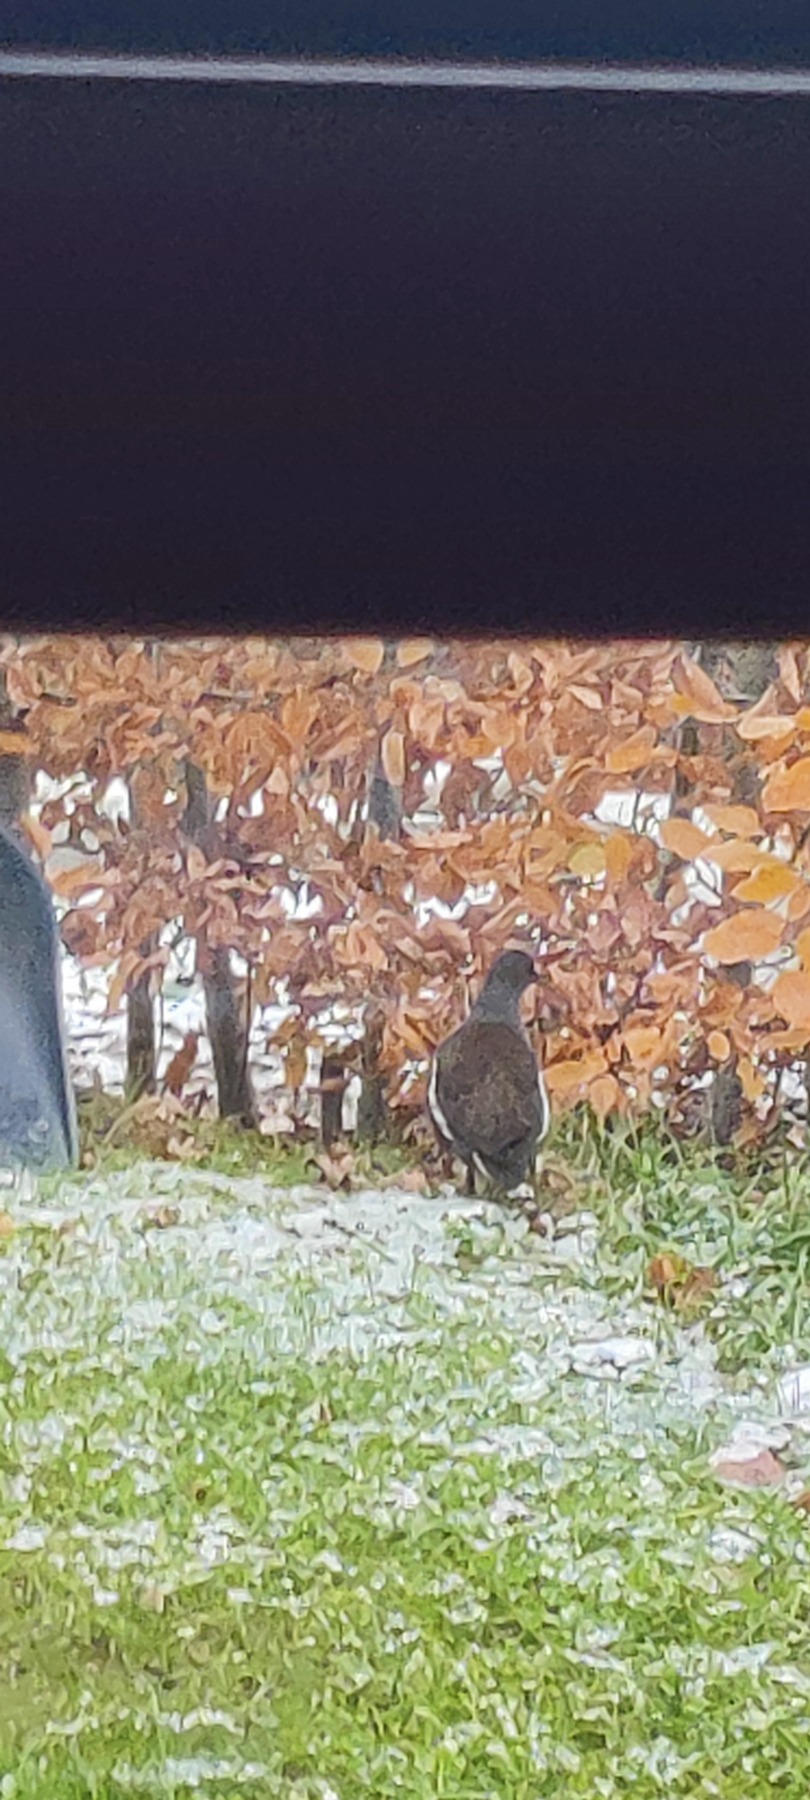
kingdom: Animalia
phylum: Chordata
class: Aves
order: Gruiformes
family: Rallidae
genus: Gallinula
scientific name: Gallinula chloropus
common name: Grønbenet rørhøne
